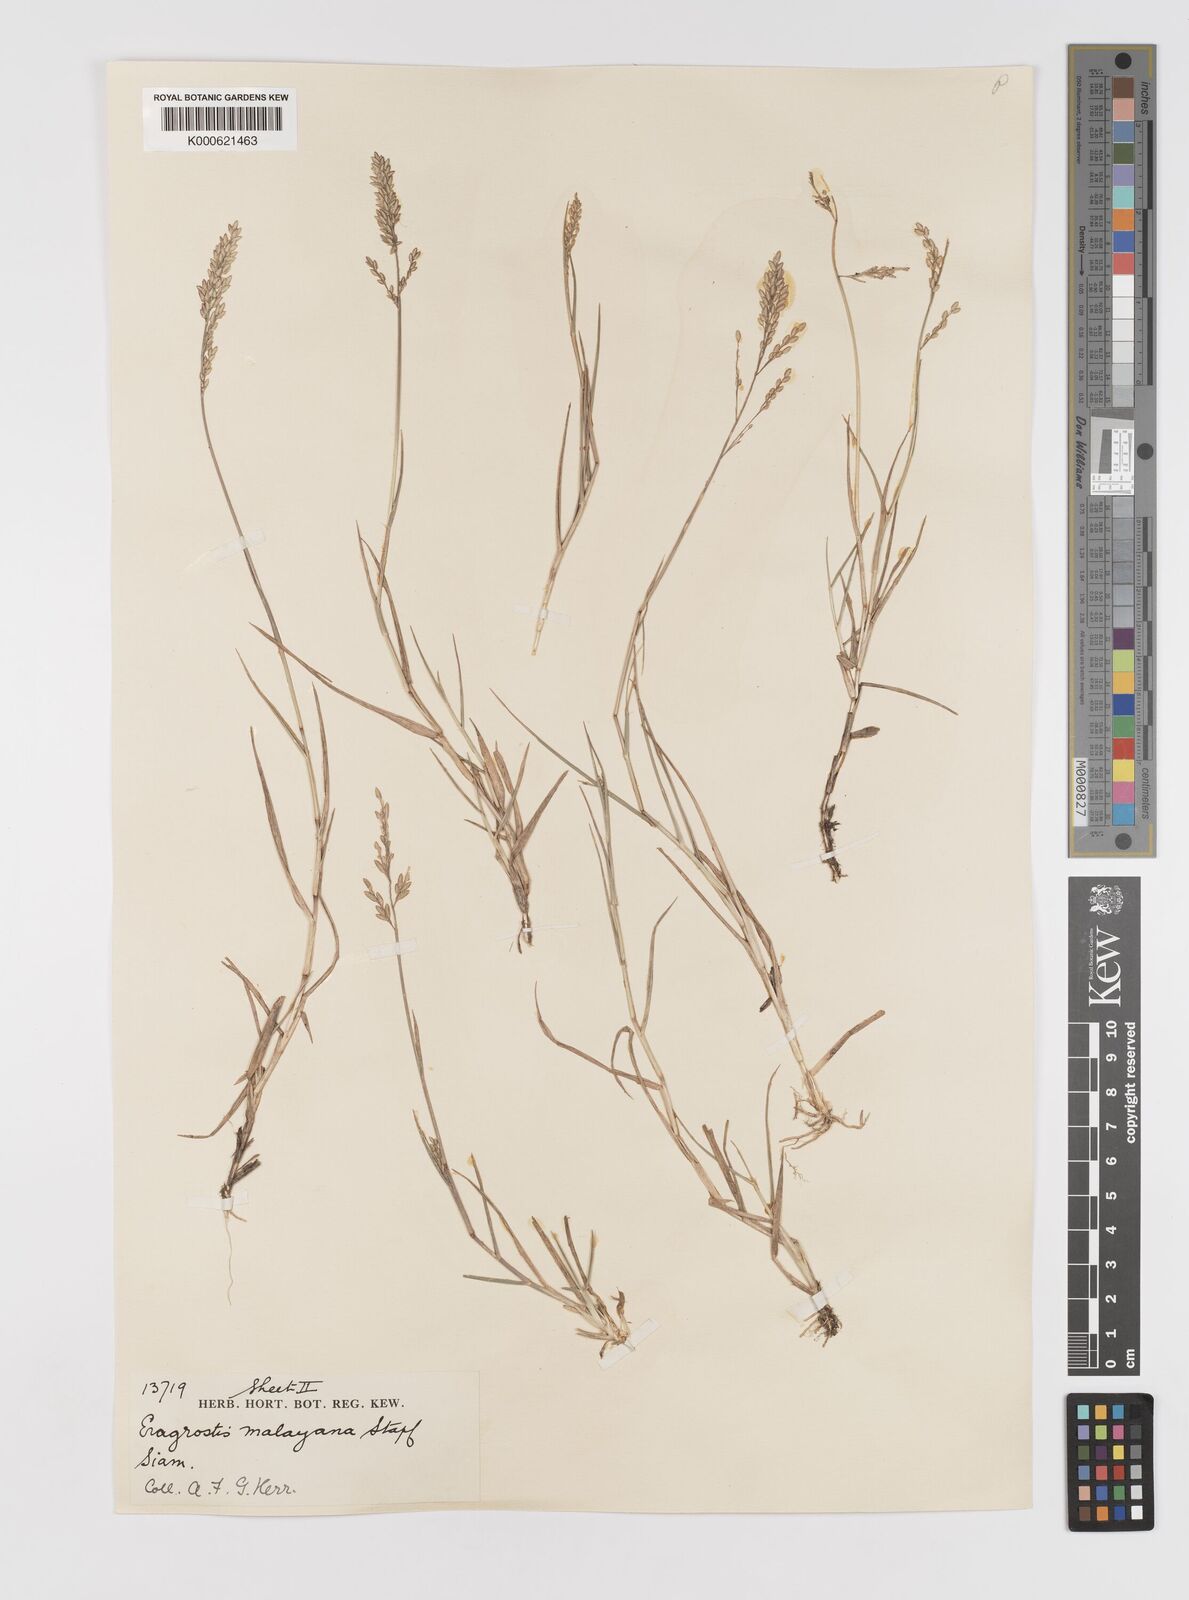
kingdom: Plantae
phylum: Tracheophyta
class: Liliopsida
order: Poales
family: Poaceae
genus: Eragrostis
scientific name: Eragrostis montana
